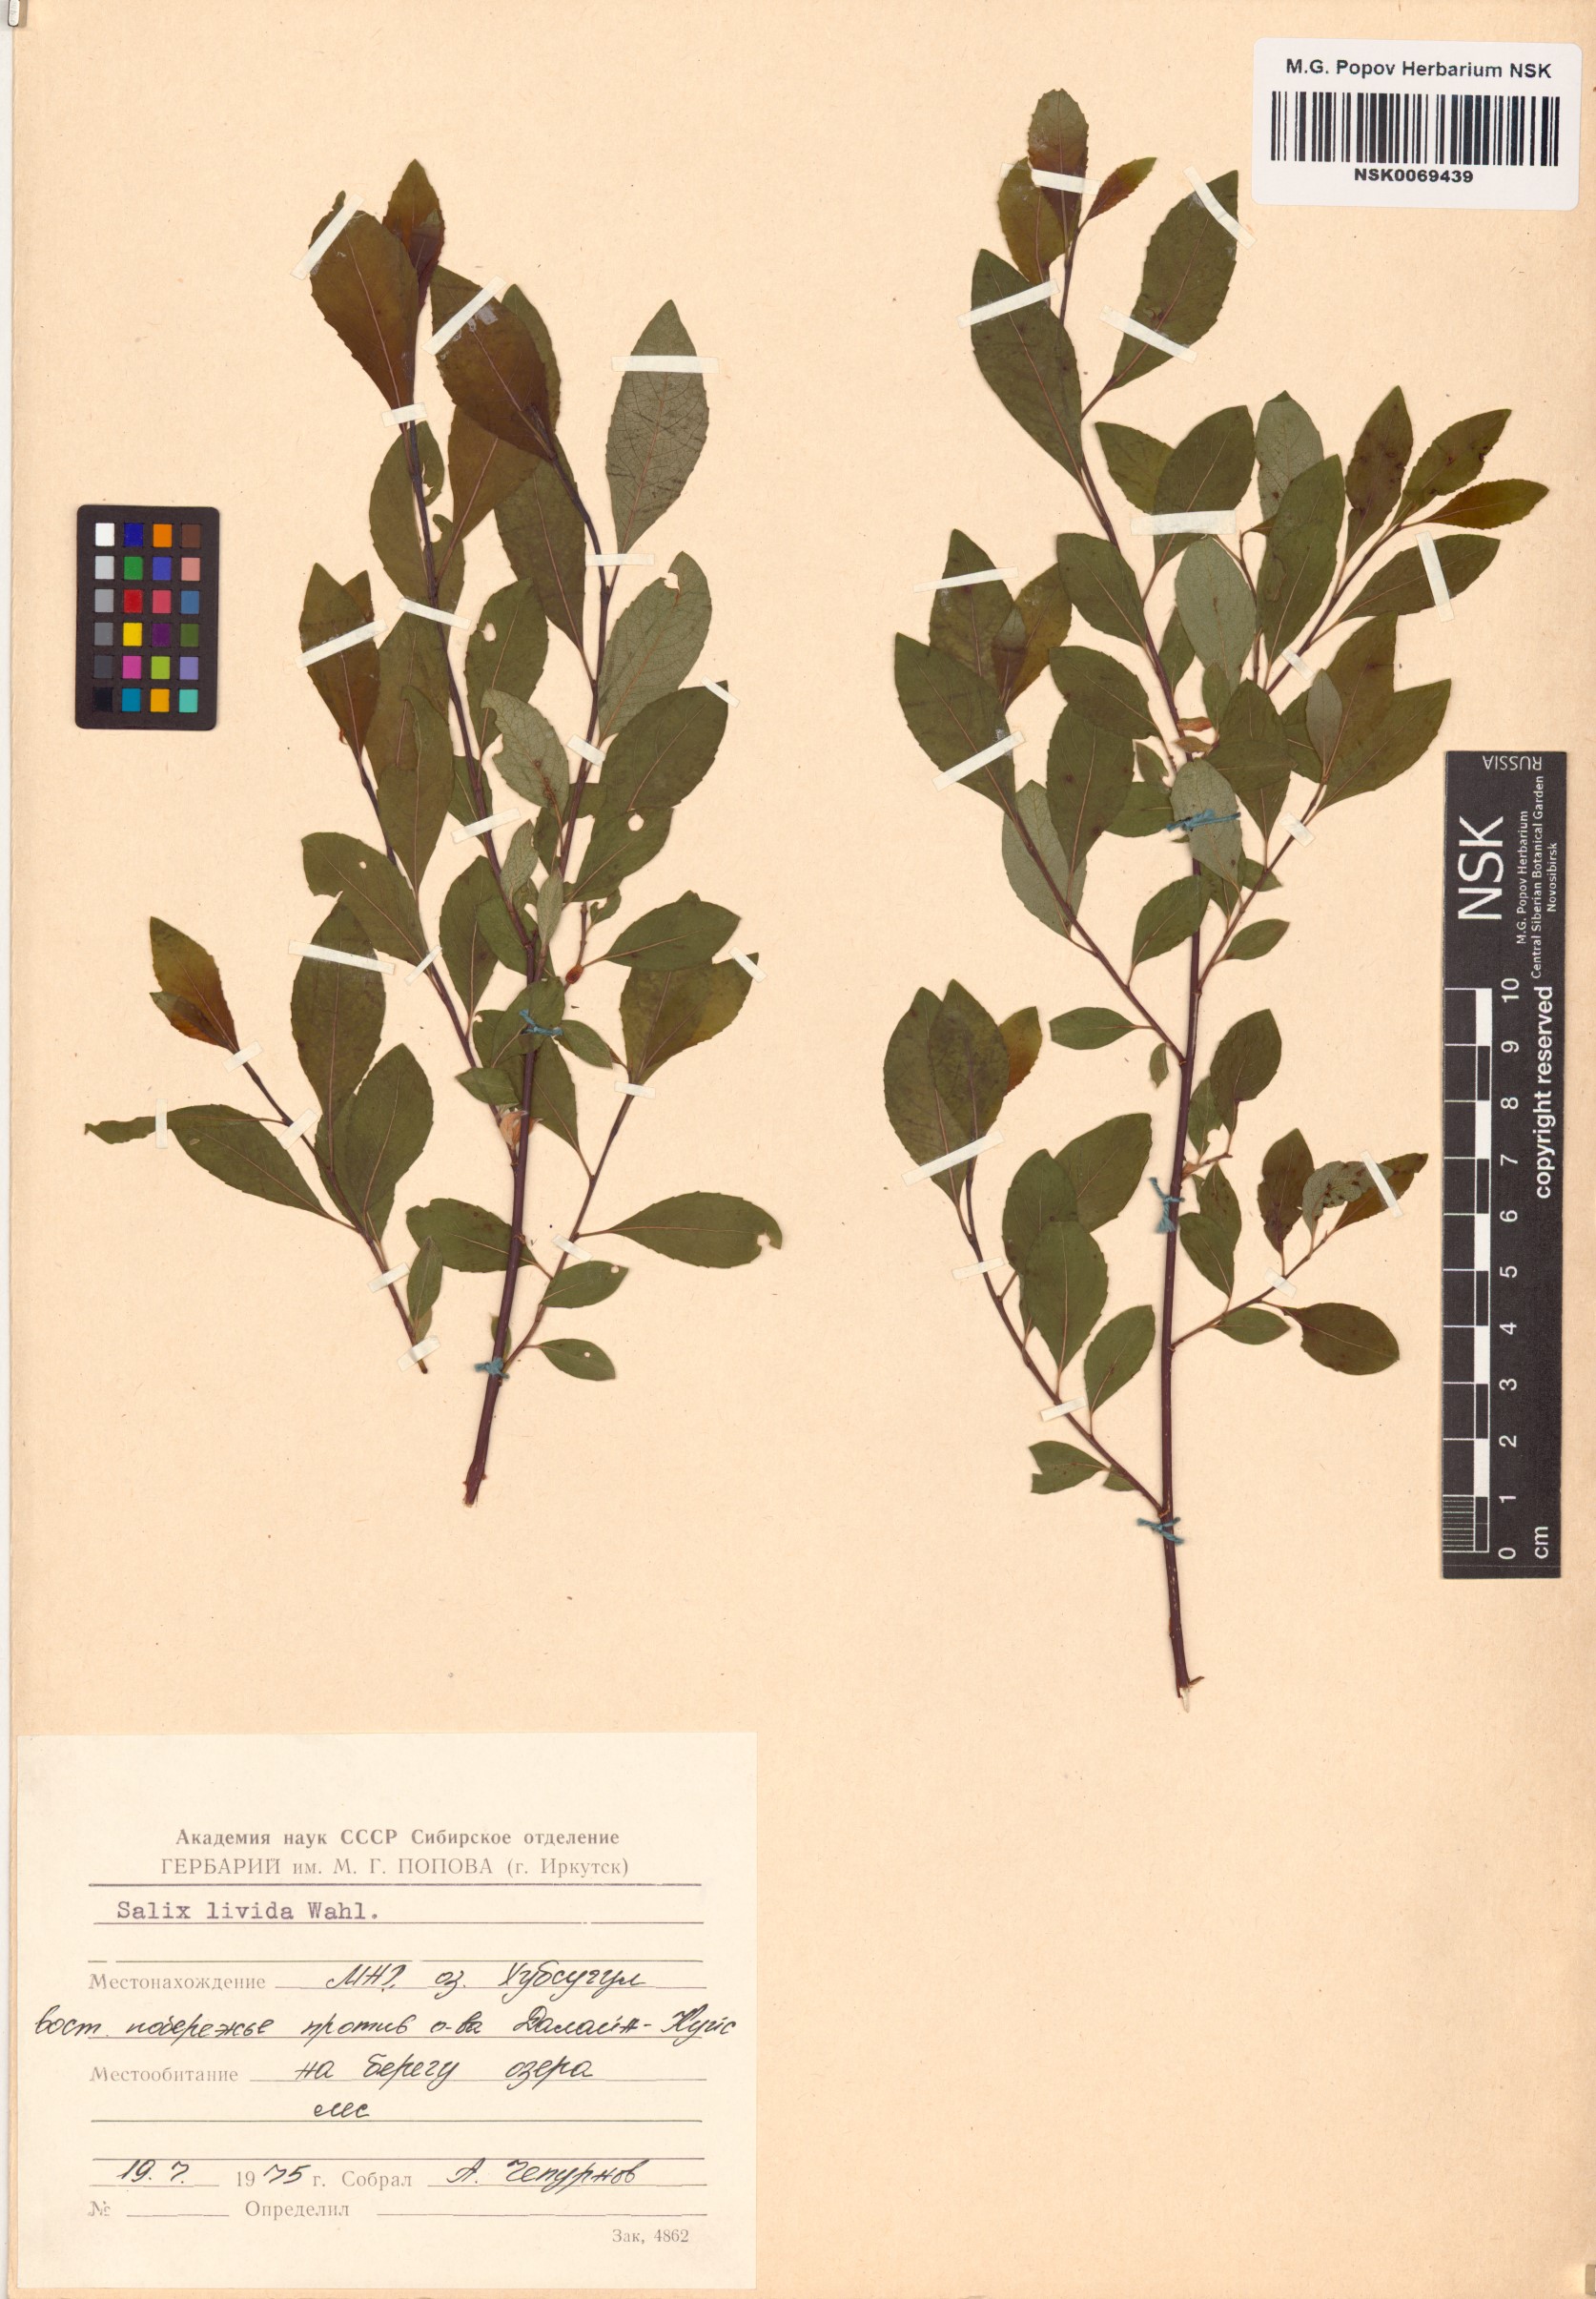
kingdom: Plantae
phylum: Tracheophyta
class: Magnoliopsida
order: Malpighiales
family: Salicaceae
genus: Salix
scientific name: Salix starkeana
